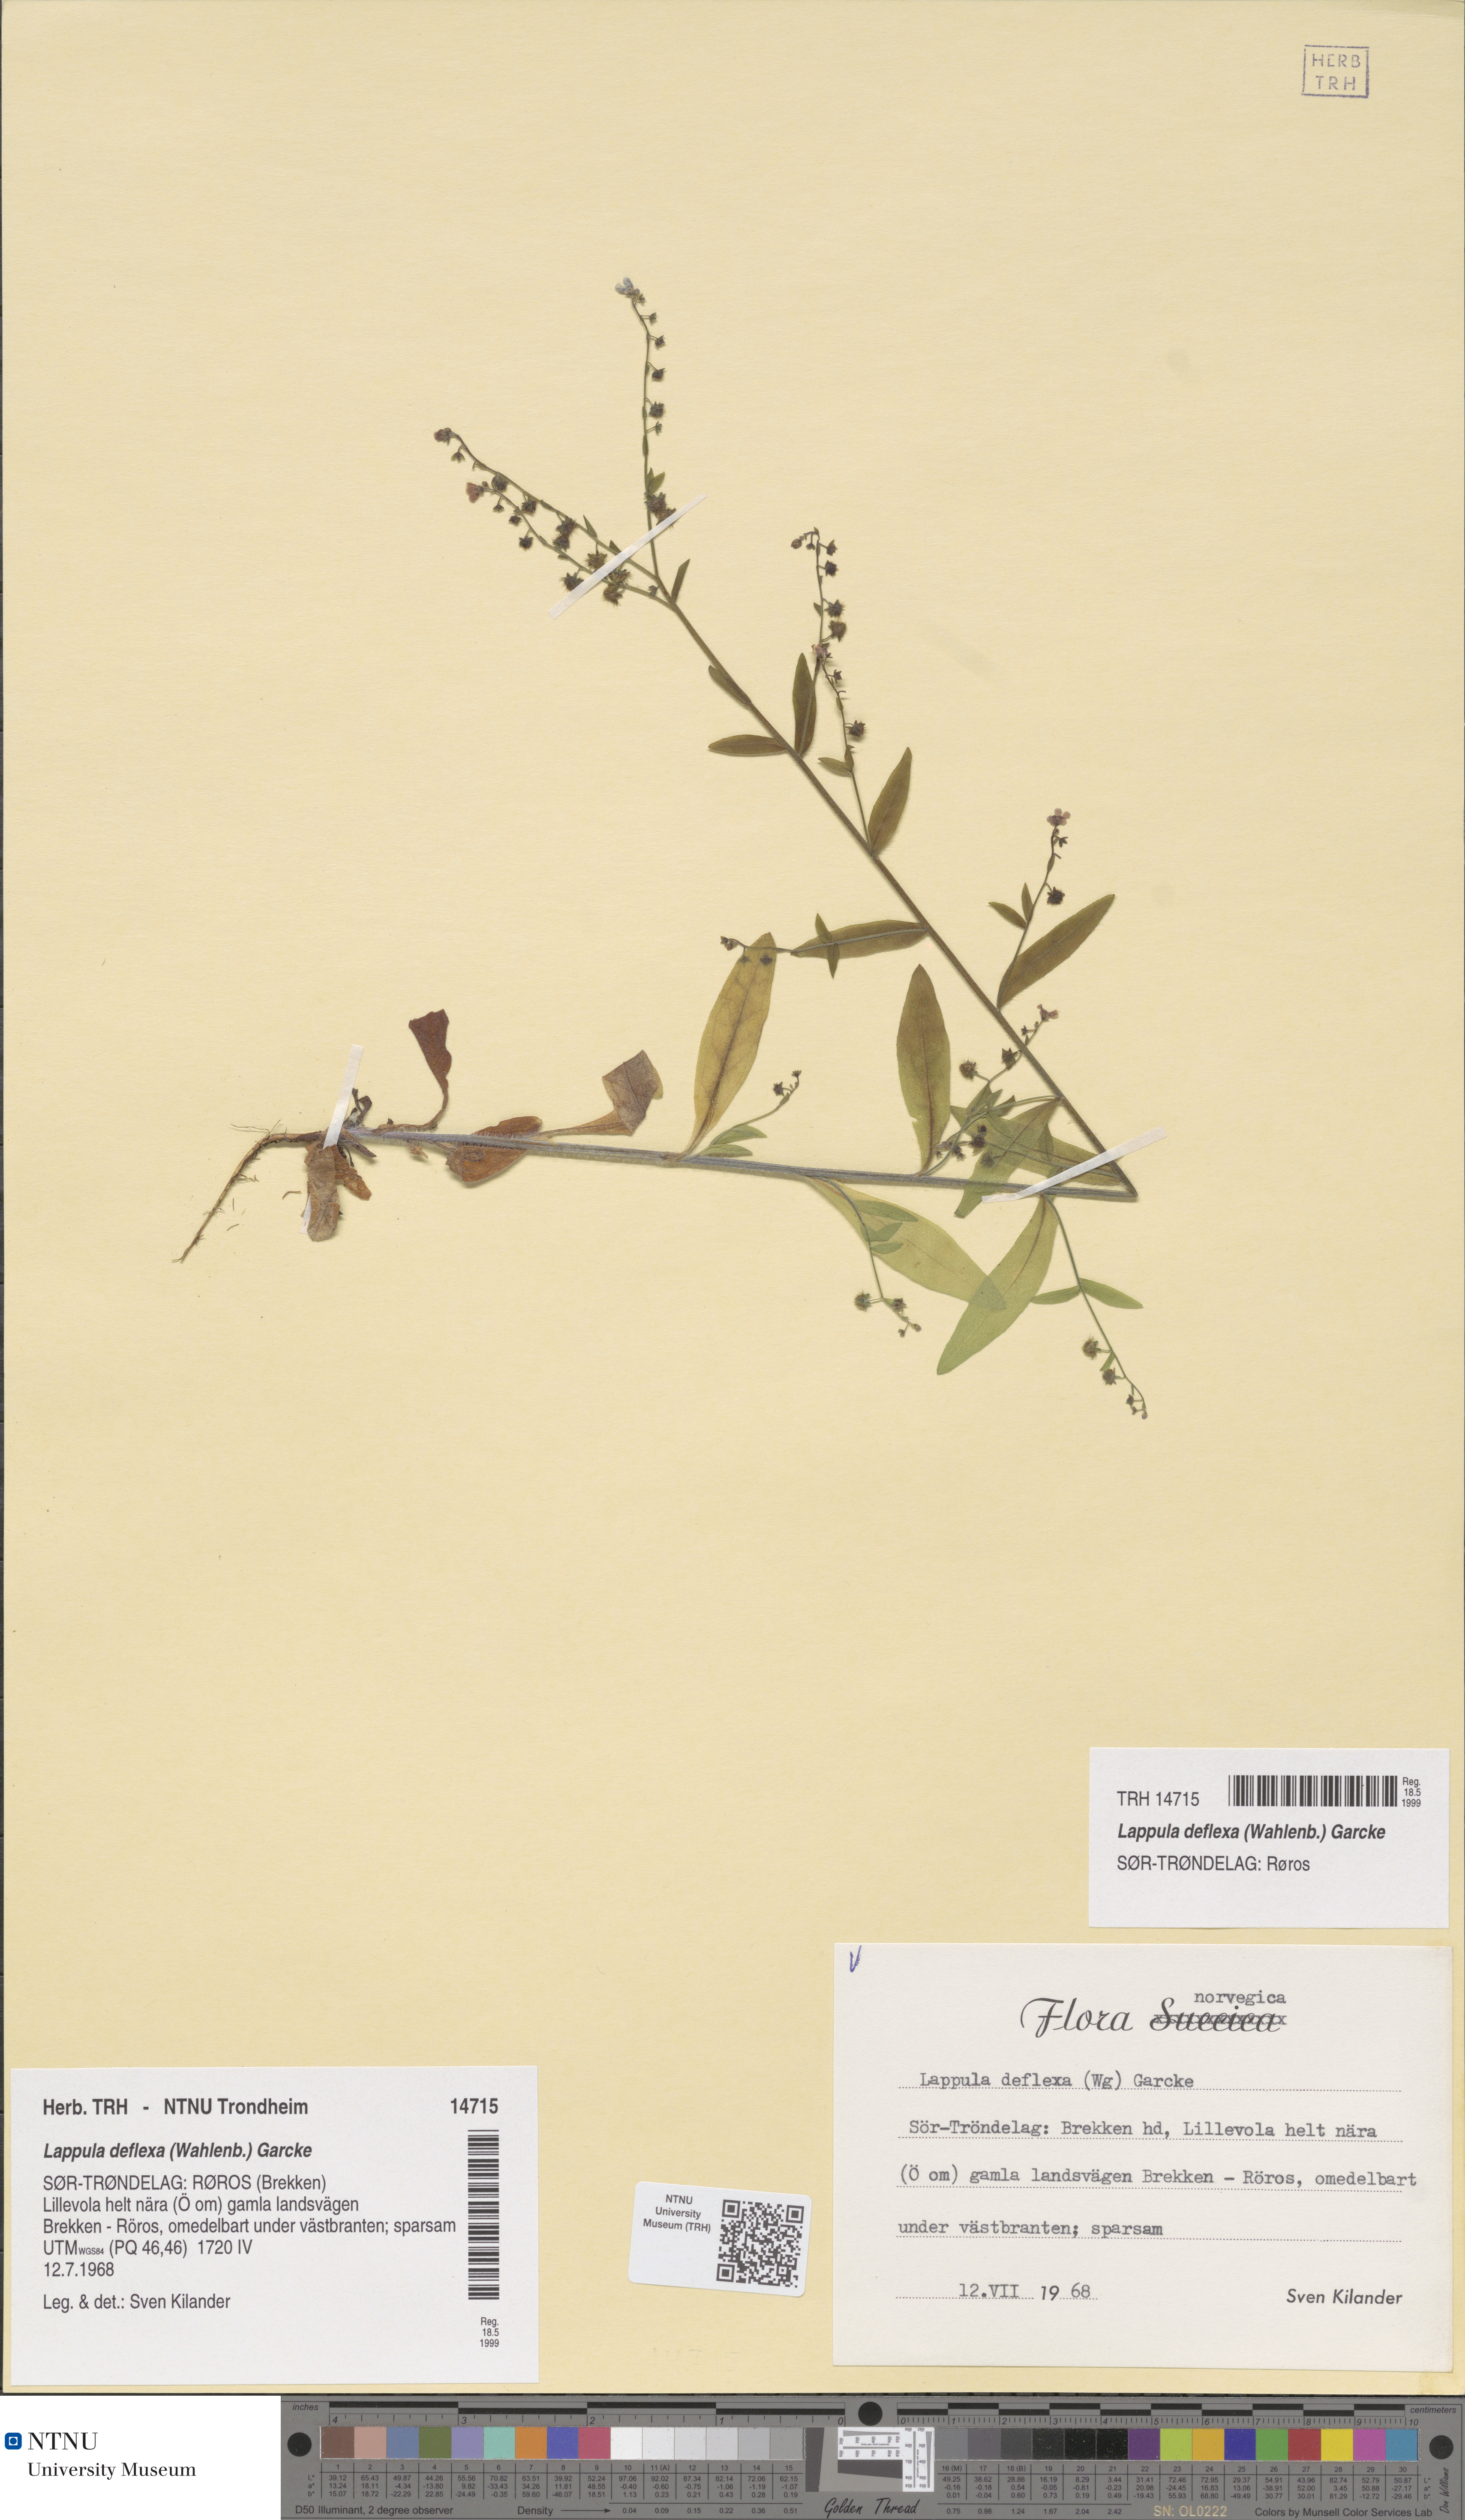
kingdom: Plantae
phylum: Tracheophyta
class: Magnoliopsida
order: Boraginales
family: Boraginaceae
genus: Hackelia
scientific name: Hackelia deflexa
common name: Nodding stickseed
